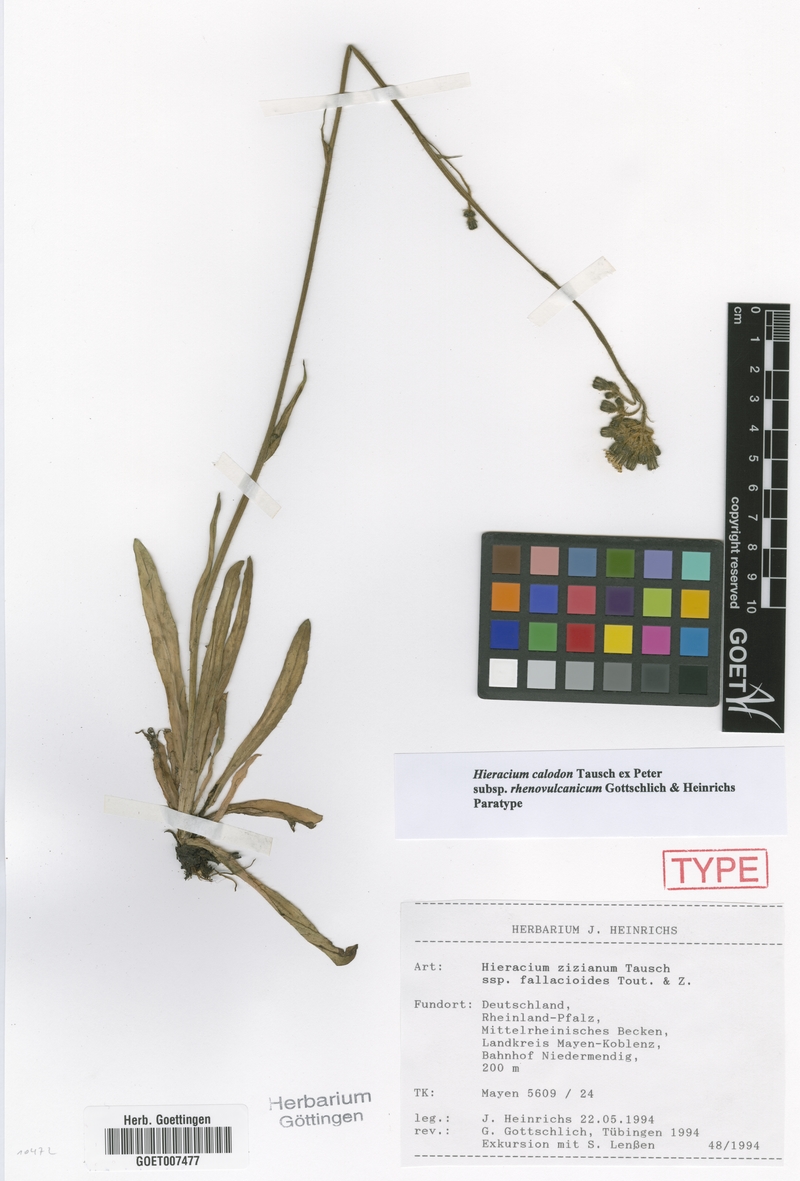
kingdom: Plantae
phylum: Tracheophyta
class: Magnoliopsida
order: Asterales
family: Asteraceae
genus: Pilosella
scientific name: Pilosella calodon
